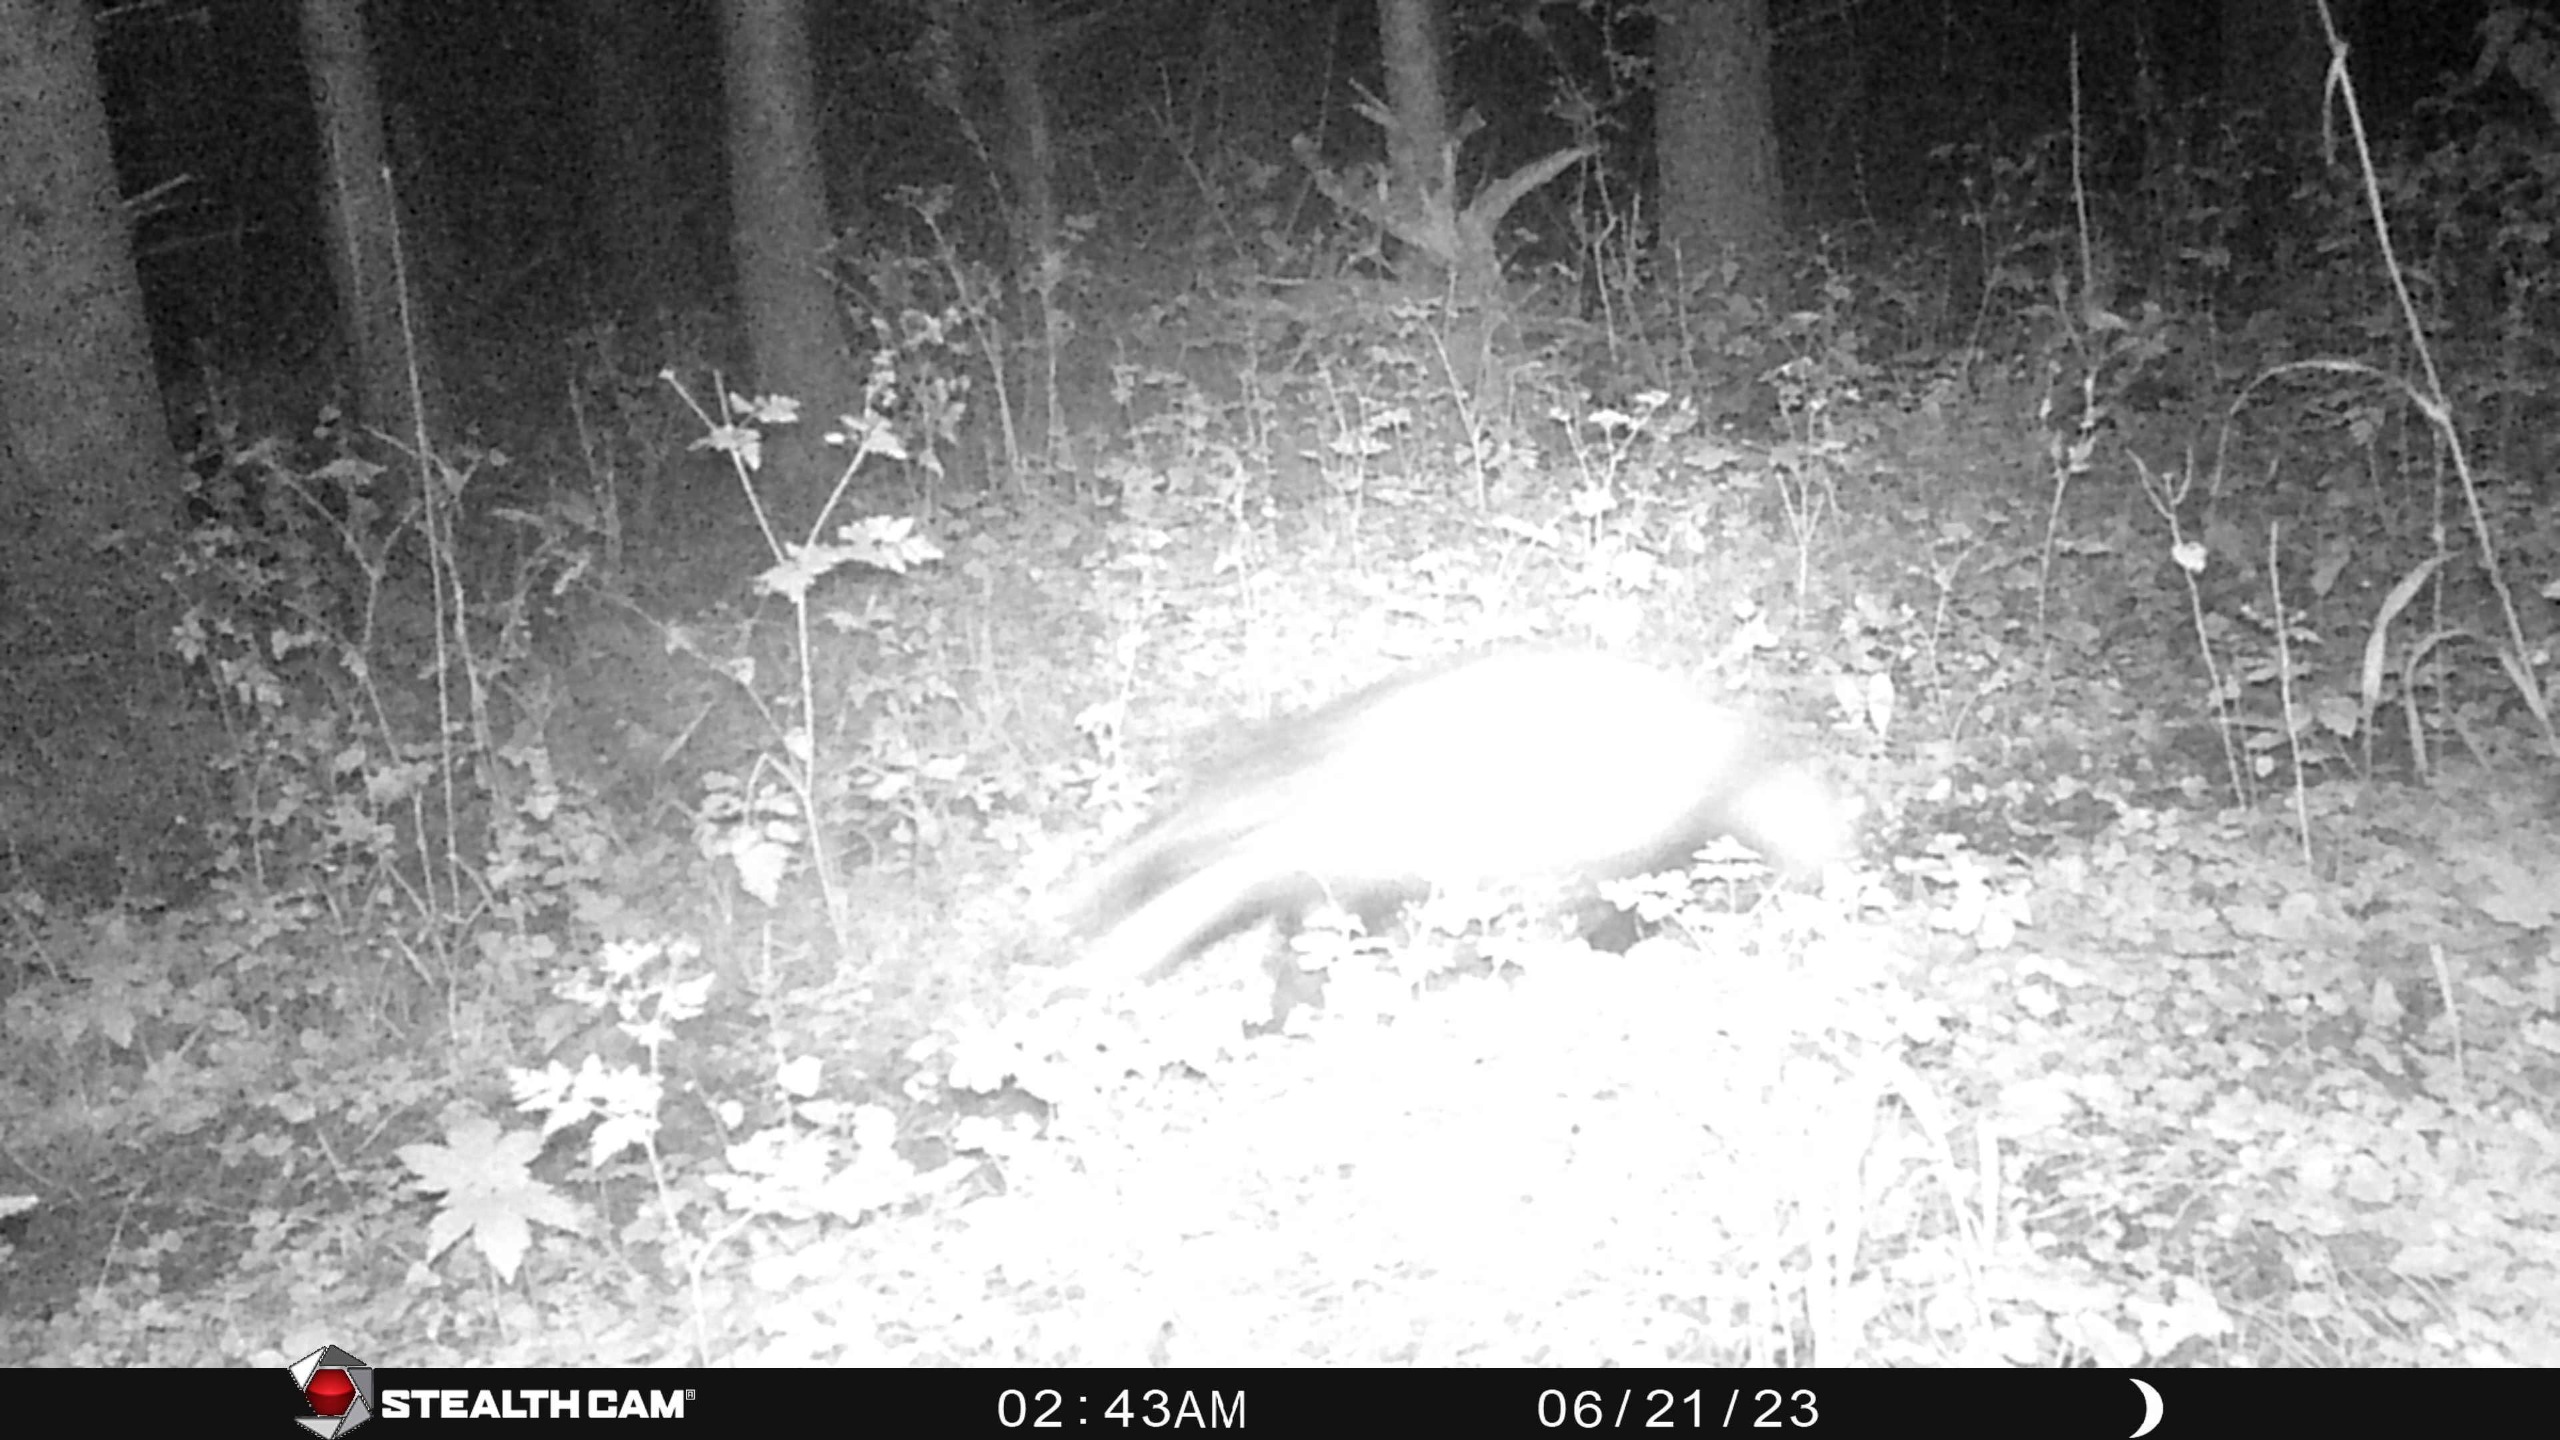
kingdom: Animalia
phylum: Chordata
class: Mammalia
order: Carnivora
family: Mustelidae
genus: Meles
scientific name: Meles meles
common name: Grævling
